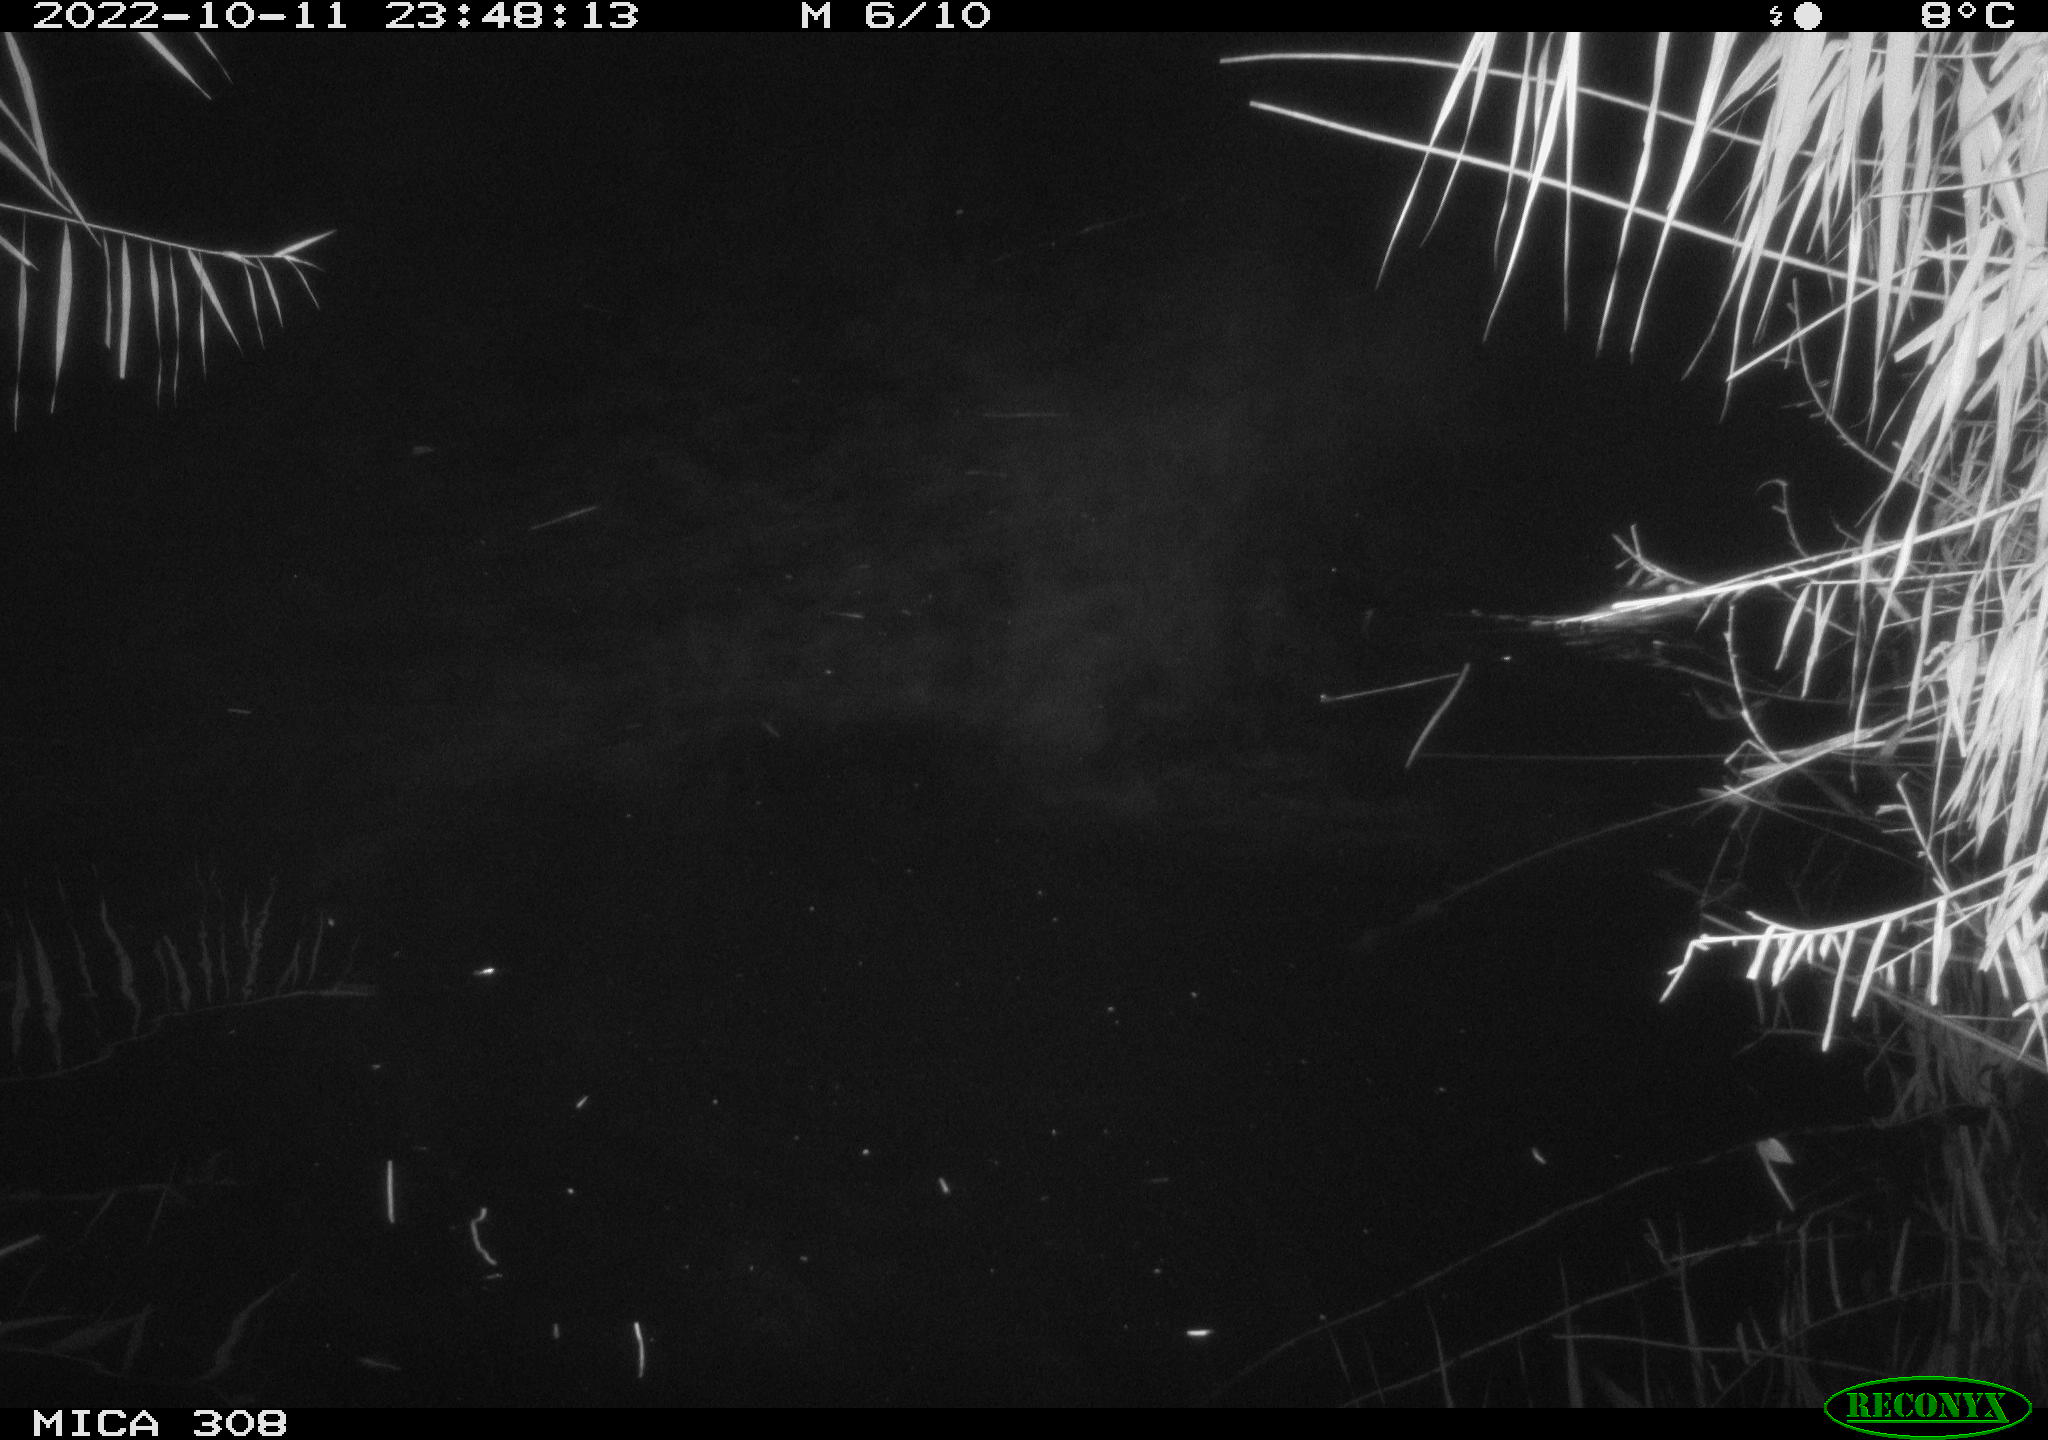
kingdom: Animalia
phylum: Chordata
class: Mammalia
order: Rodentia
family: Muridae
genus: Rattus
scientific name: Rattus norvegicus
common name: Brown rat
